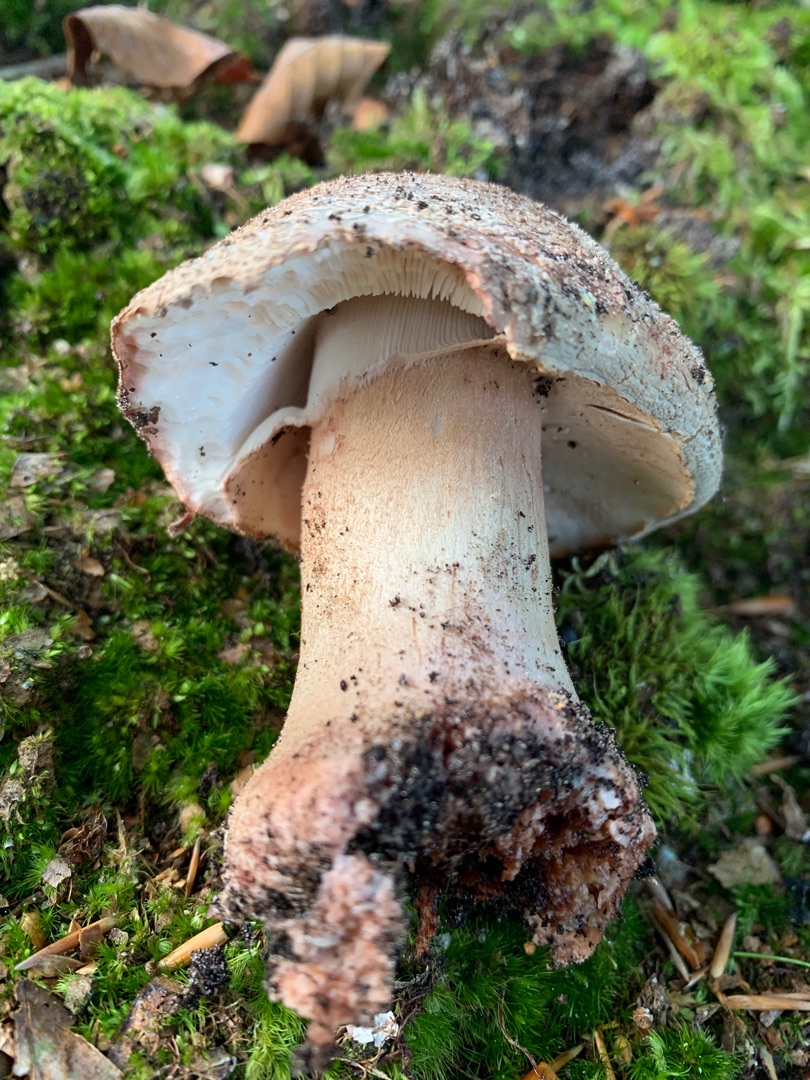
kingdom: Fungi
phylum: Basidiomycota
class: Agaricomycetes
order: Agaricales
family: Amanitaceae
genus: Amanita
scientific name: Amanita rubescens
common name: Rødmende fluesvamp
